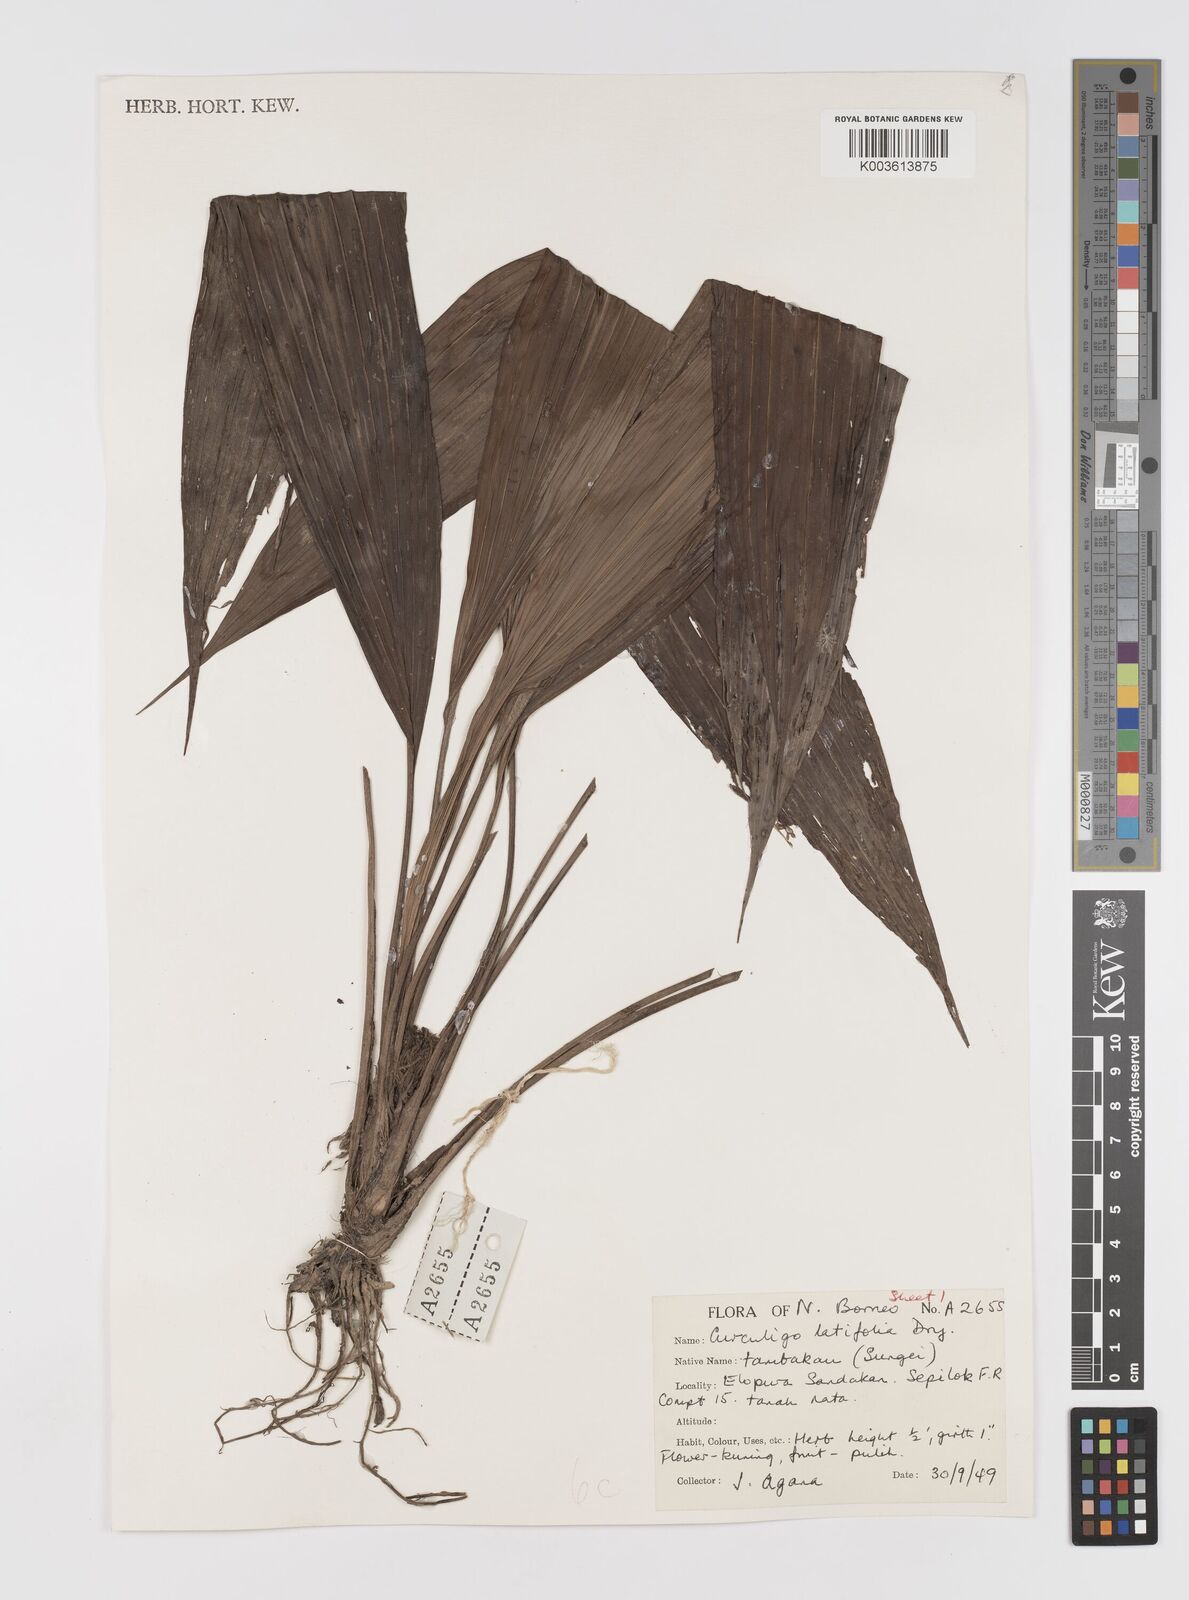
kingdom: Plantae
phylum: Tracheophyta
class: Liliopsida
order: Asparagales
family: Hypoxidaceae
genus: Curculigo
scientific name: Curculigo latifolia
